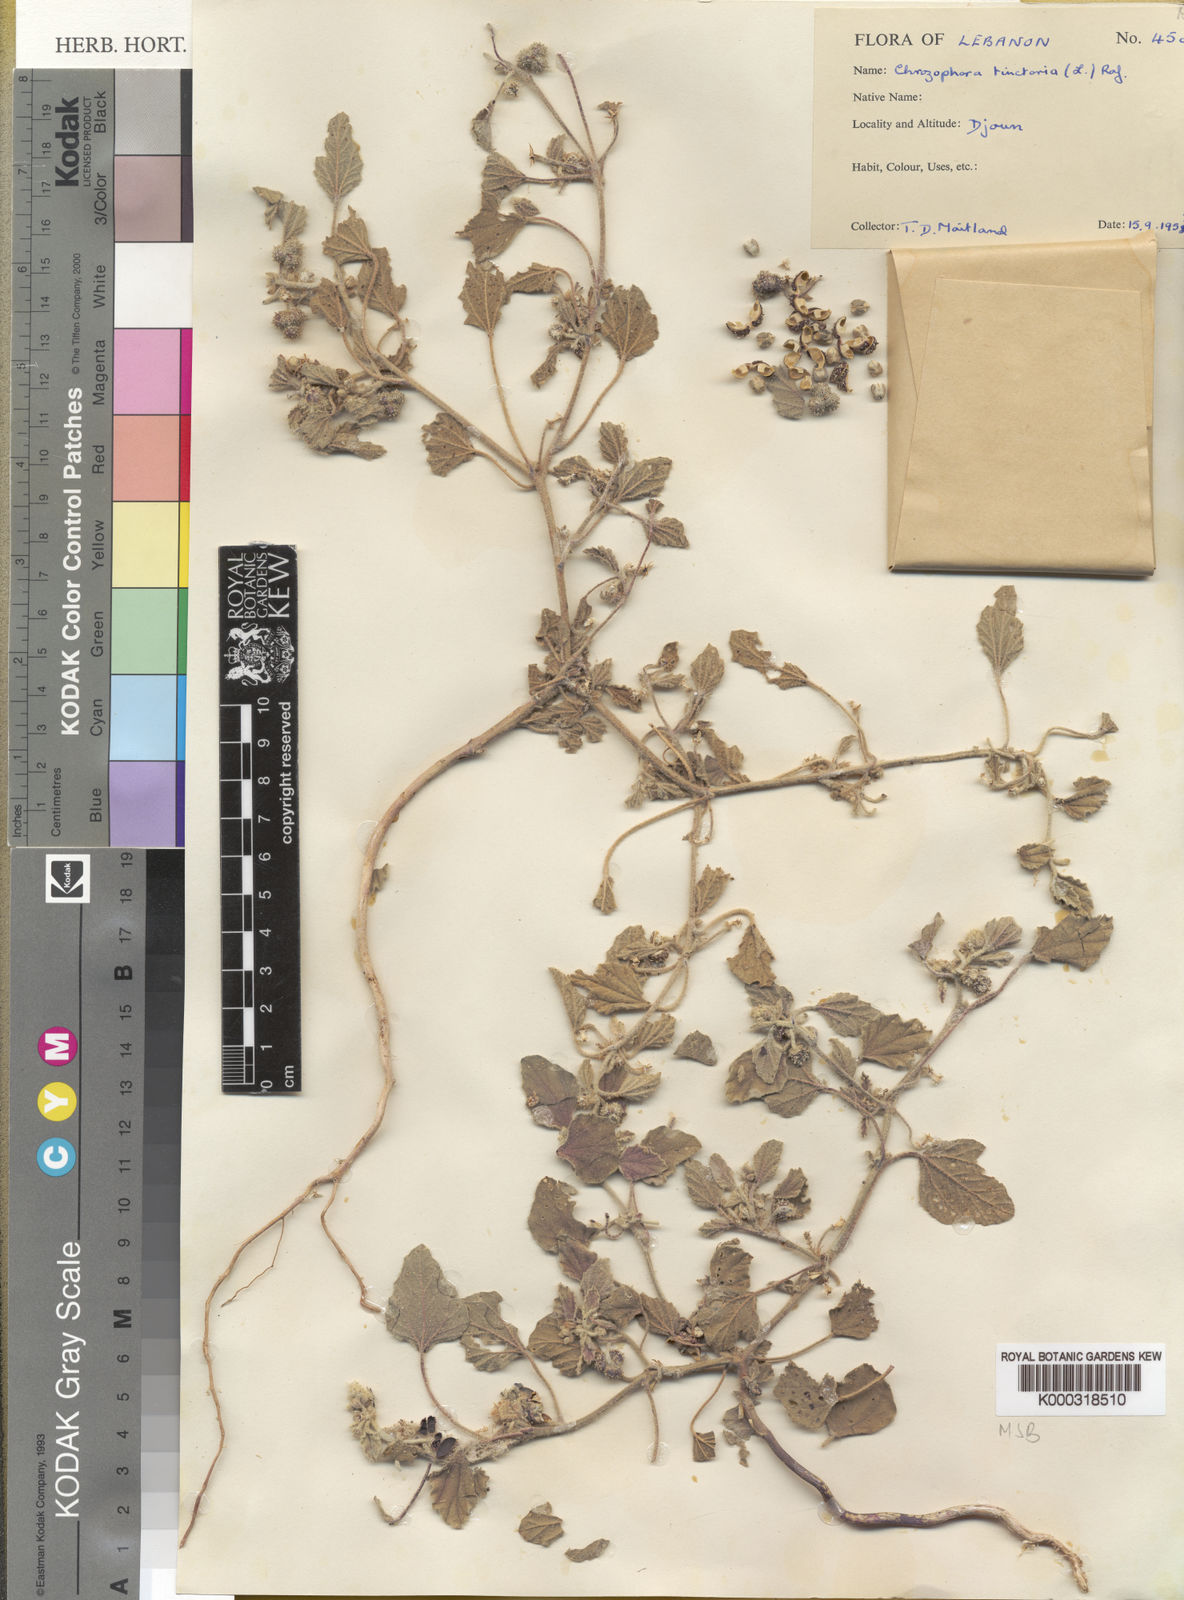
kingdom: Plantae
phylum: Tracheophyta
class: Magnoliopsida
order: Malpighiales
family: Euphorbiaceae
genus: Chrozophora
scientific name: Chrozophora
